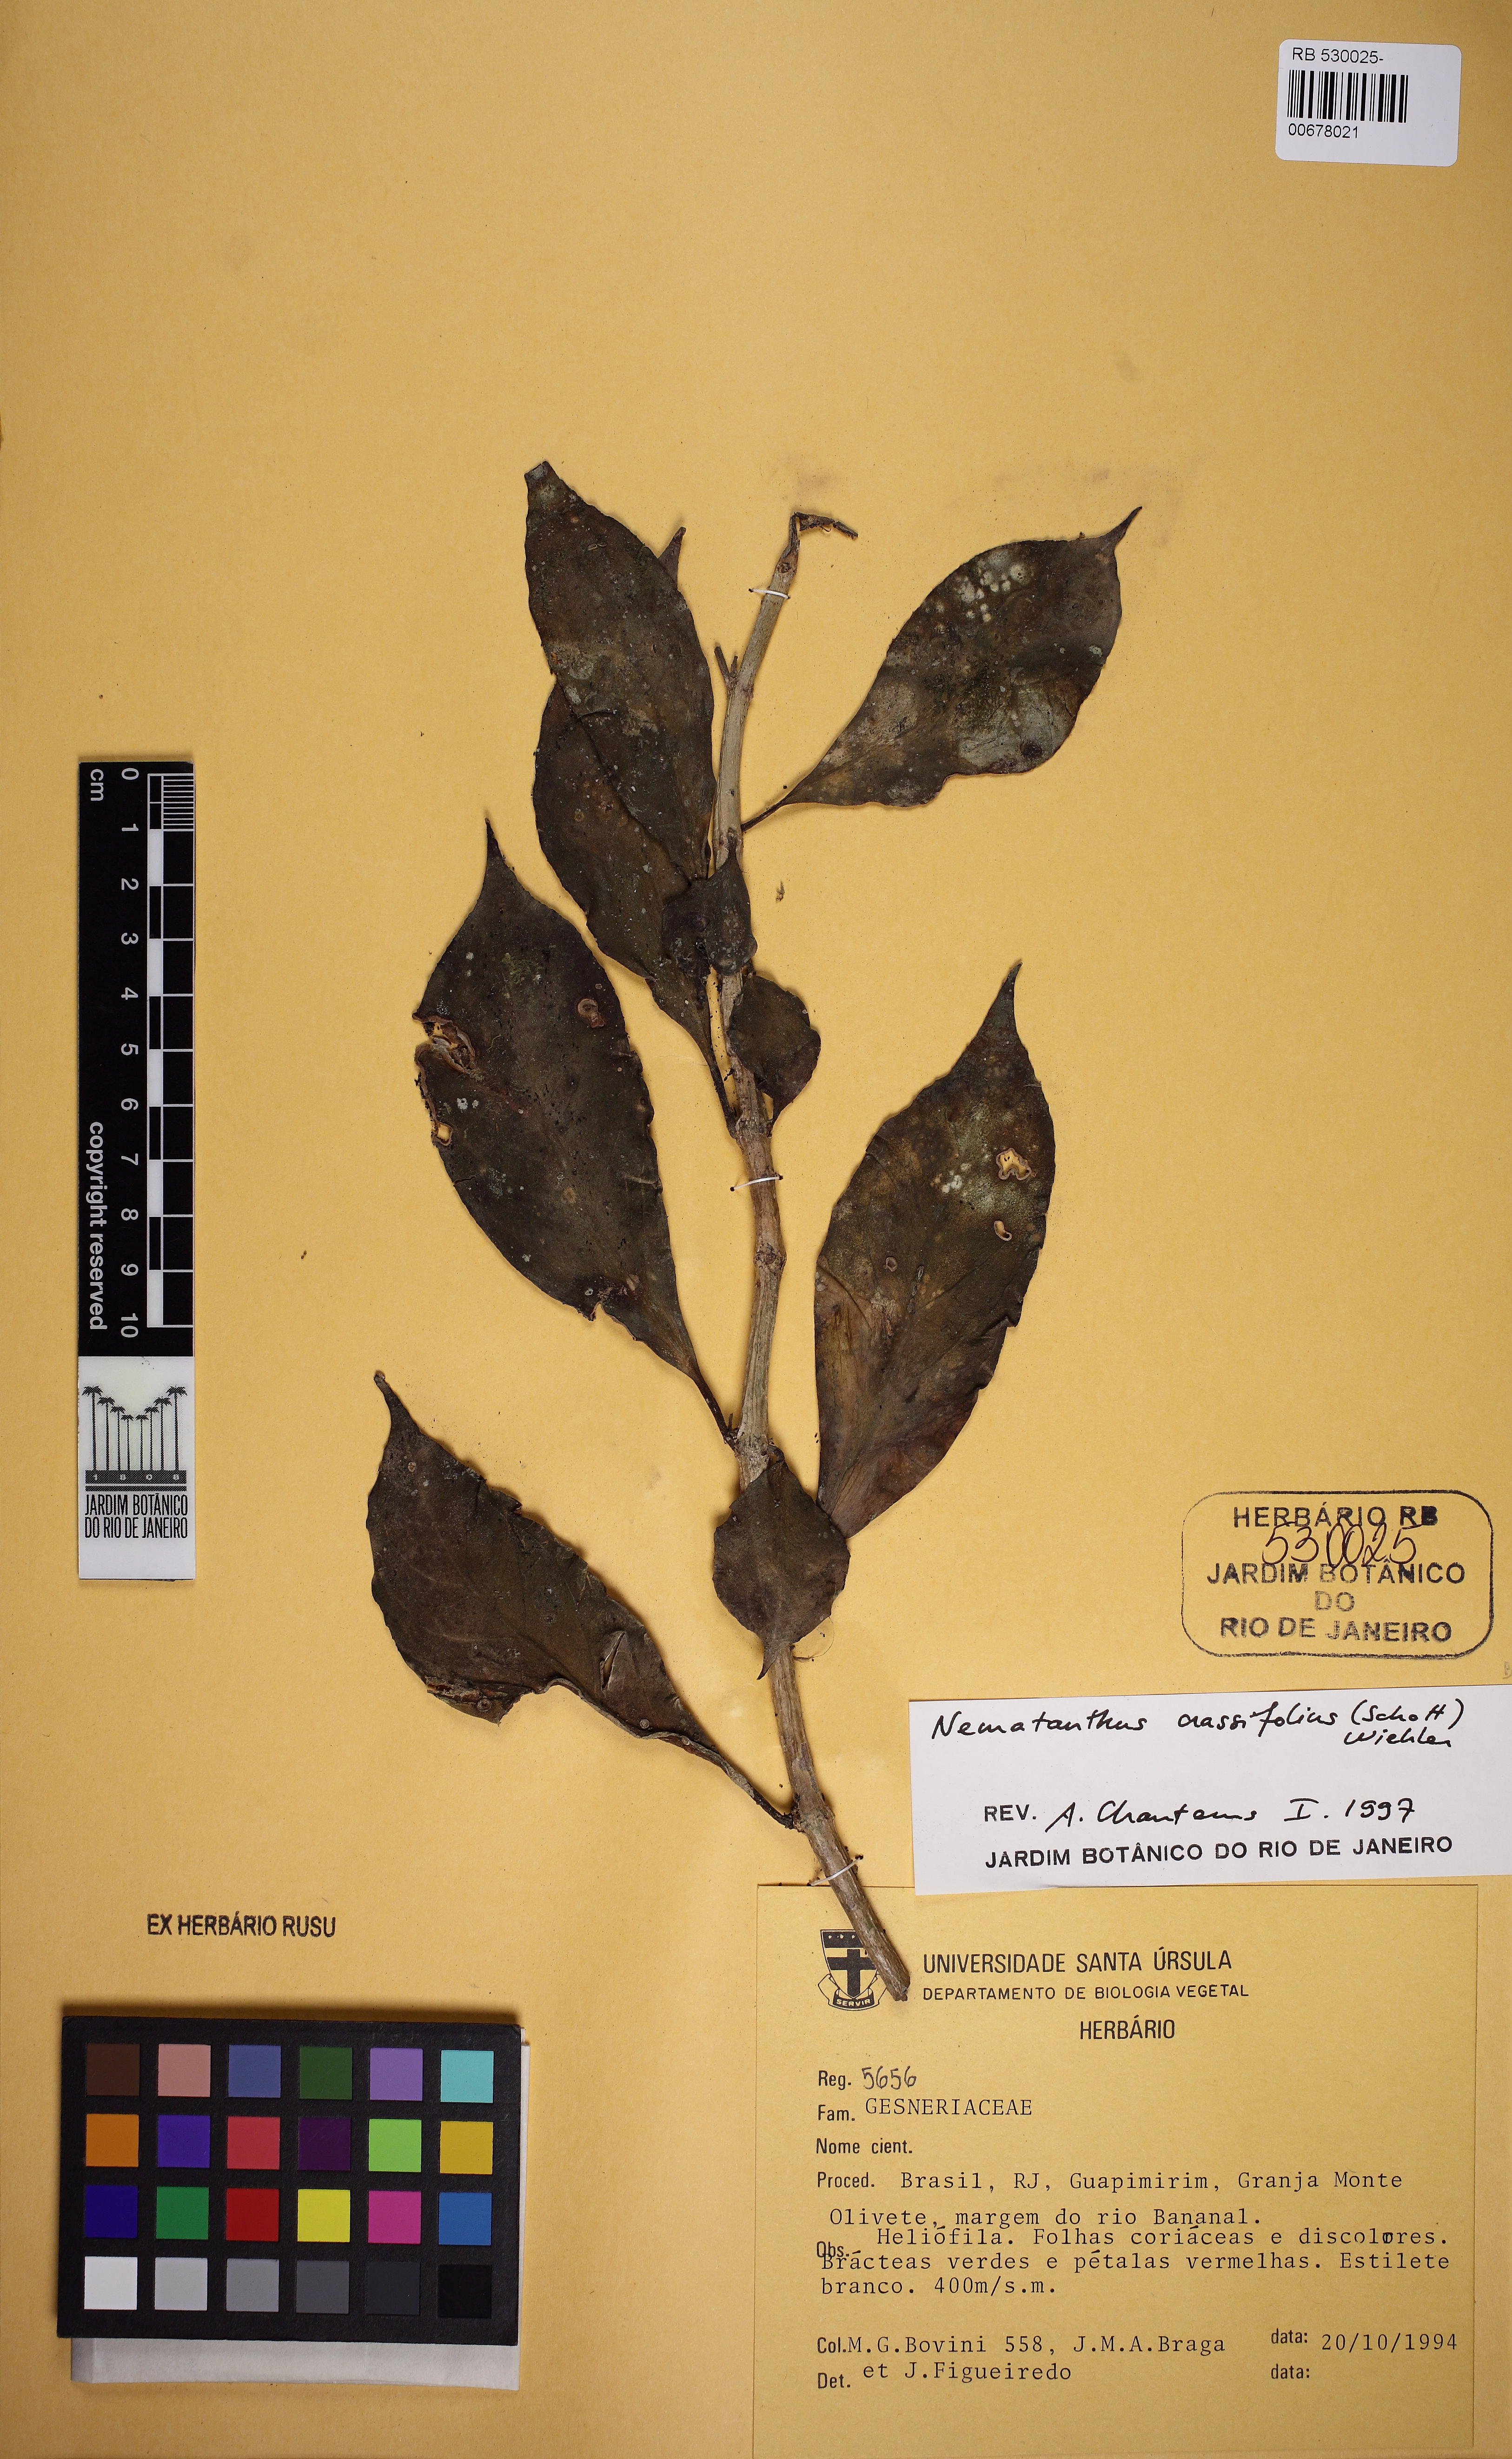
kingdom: Plantae
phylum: Tracheophyta
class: Magnoliopsida
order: Lamiales
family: Gesneriaceae
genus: Nematanthus
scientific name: Nematanthus crassifolius
